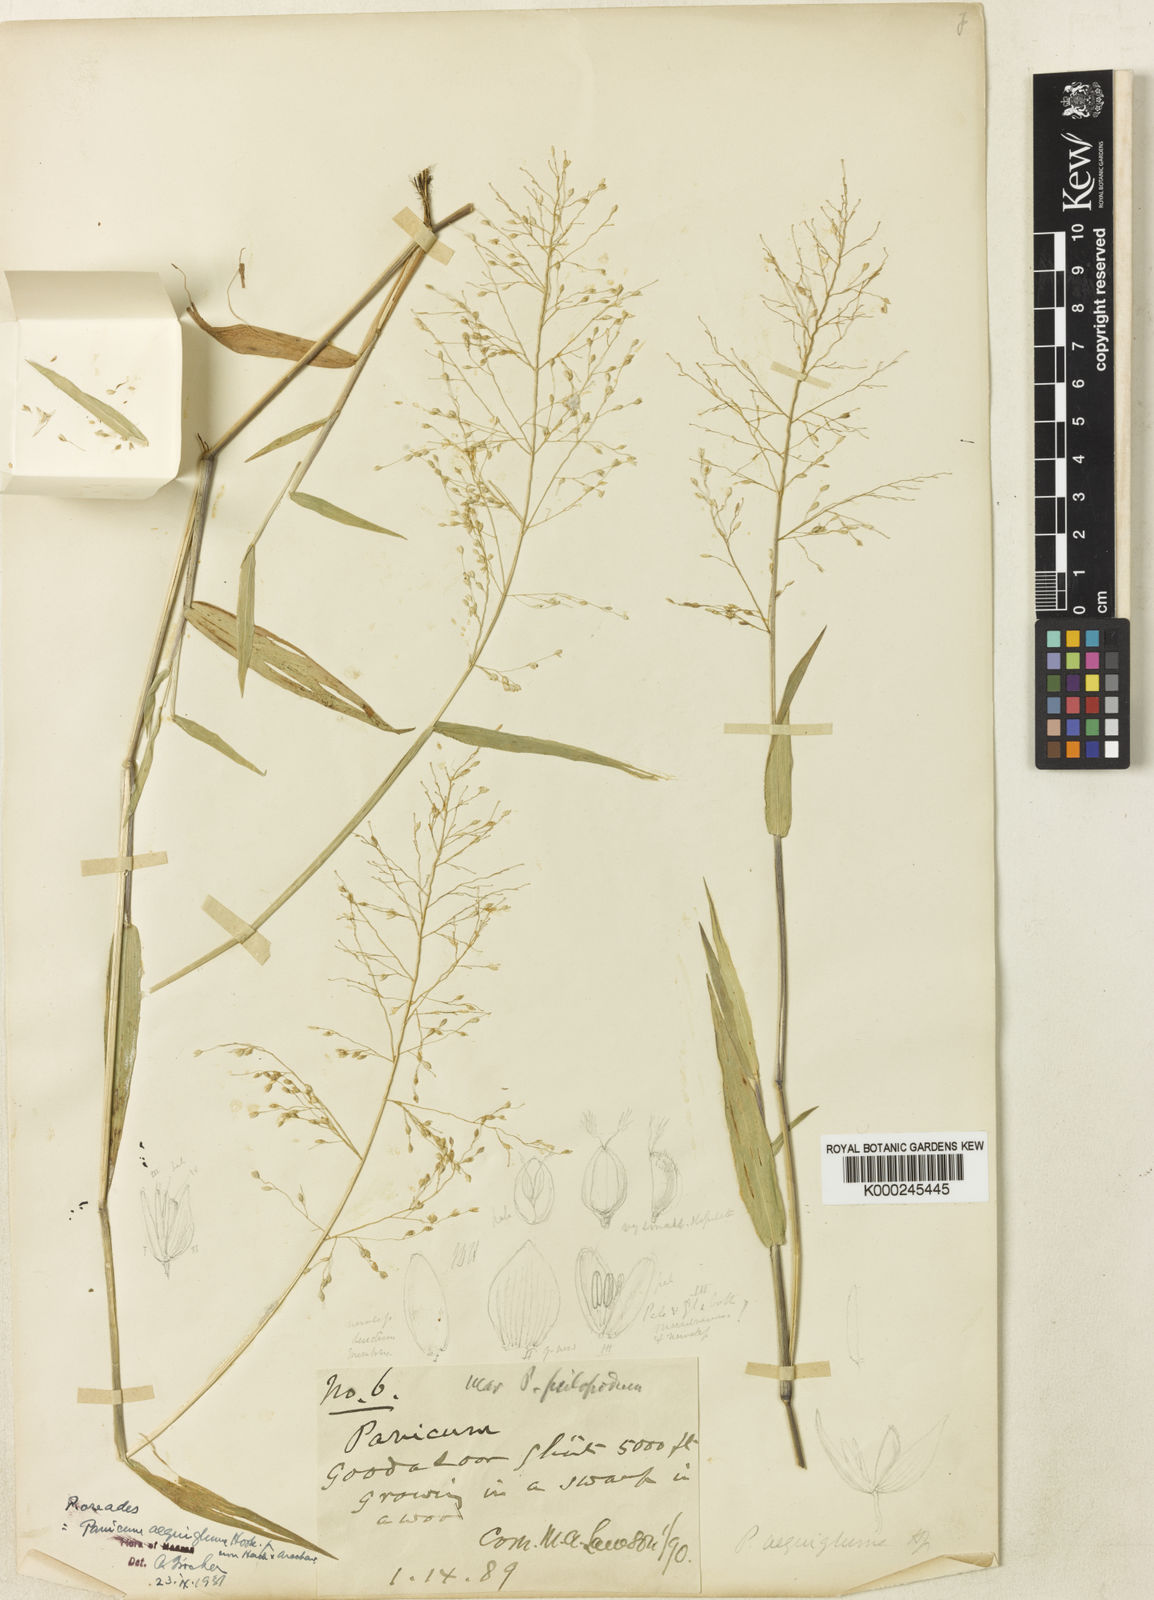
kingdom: Plantae
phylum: Tracheophyta
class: Liliopsida
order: Poales
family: Poaceae
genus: Isachne
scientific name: Isachne oreades
